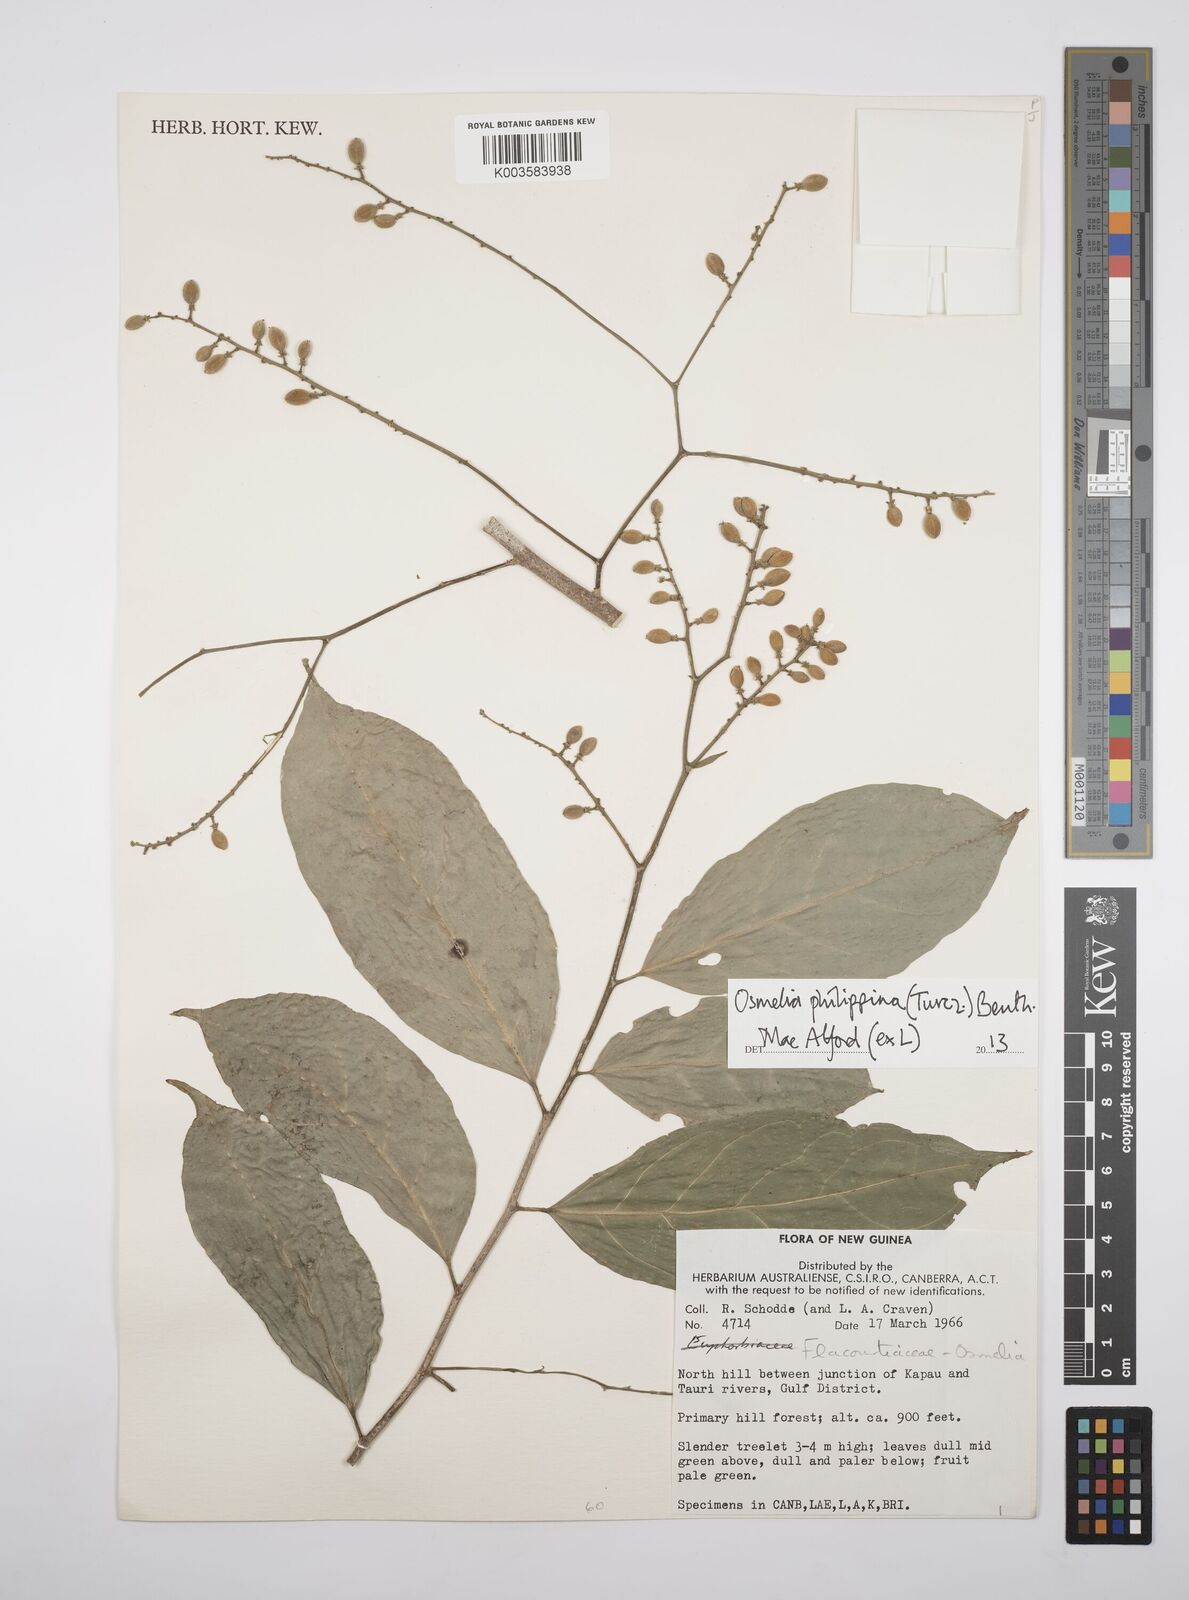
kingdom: Plantae
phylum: Tracheophyta
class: Magnoliopsida
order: Malpighiales
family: Salicaceae
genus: Osmelia
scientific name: Osmelia philippina
